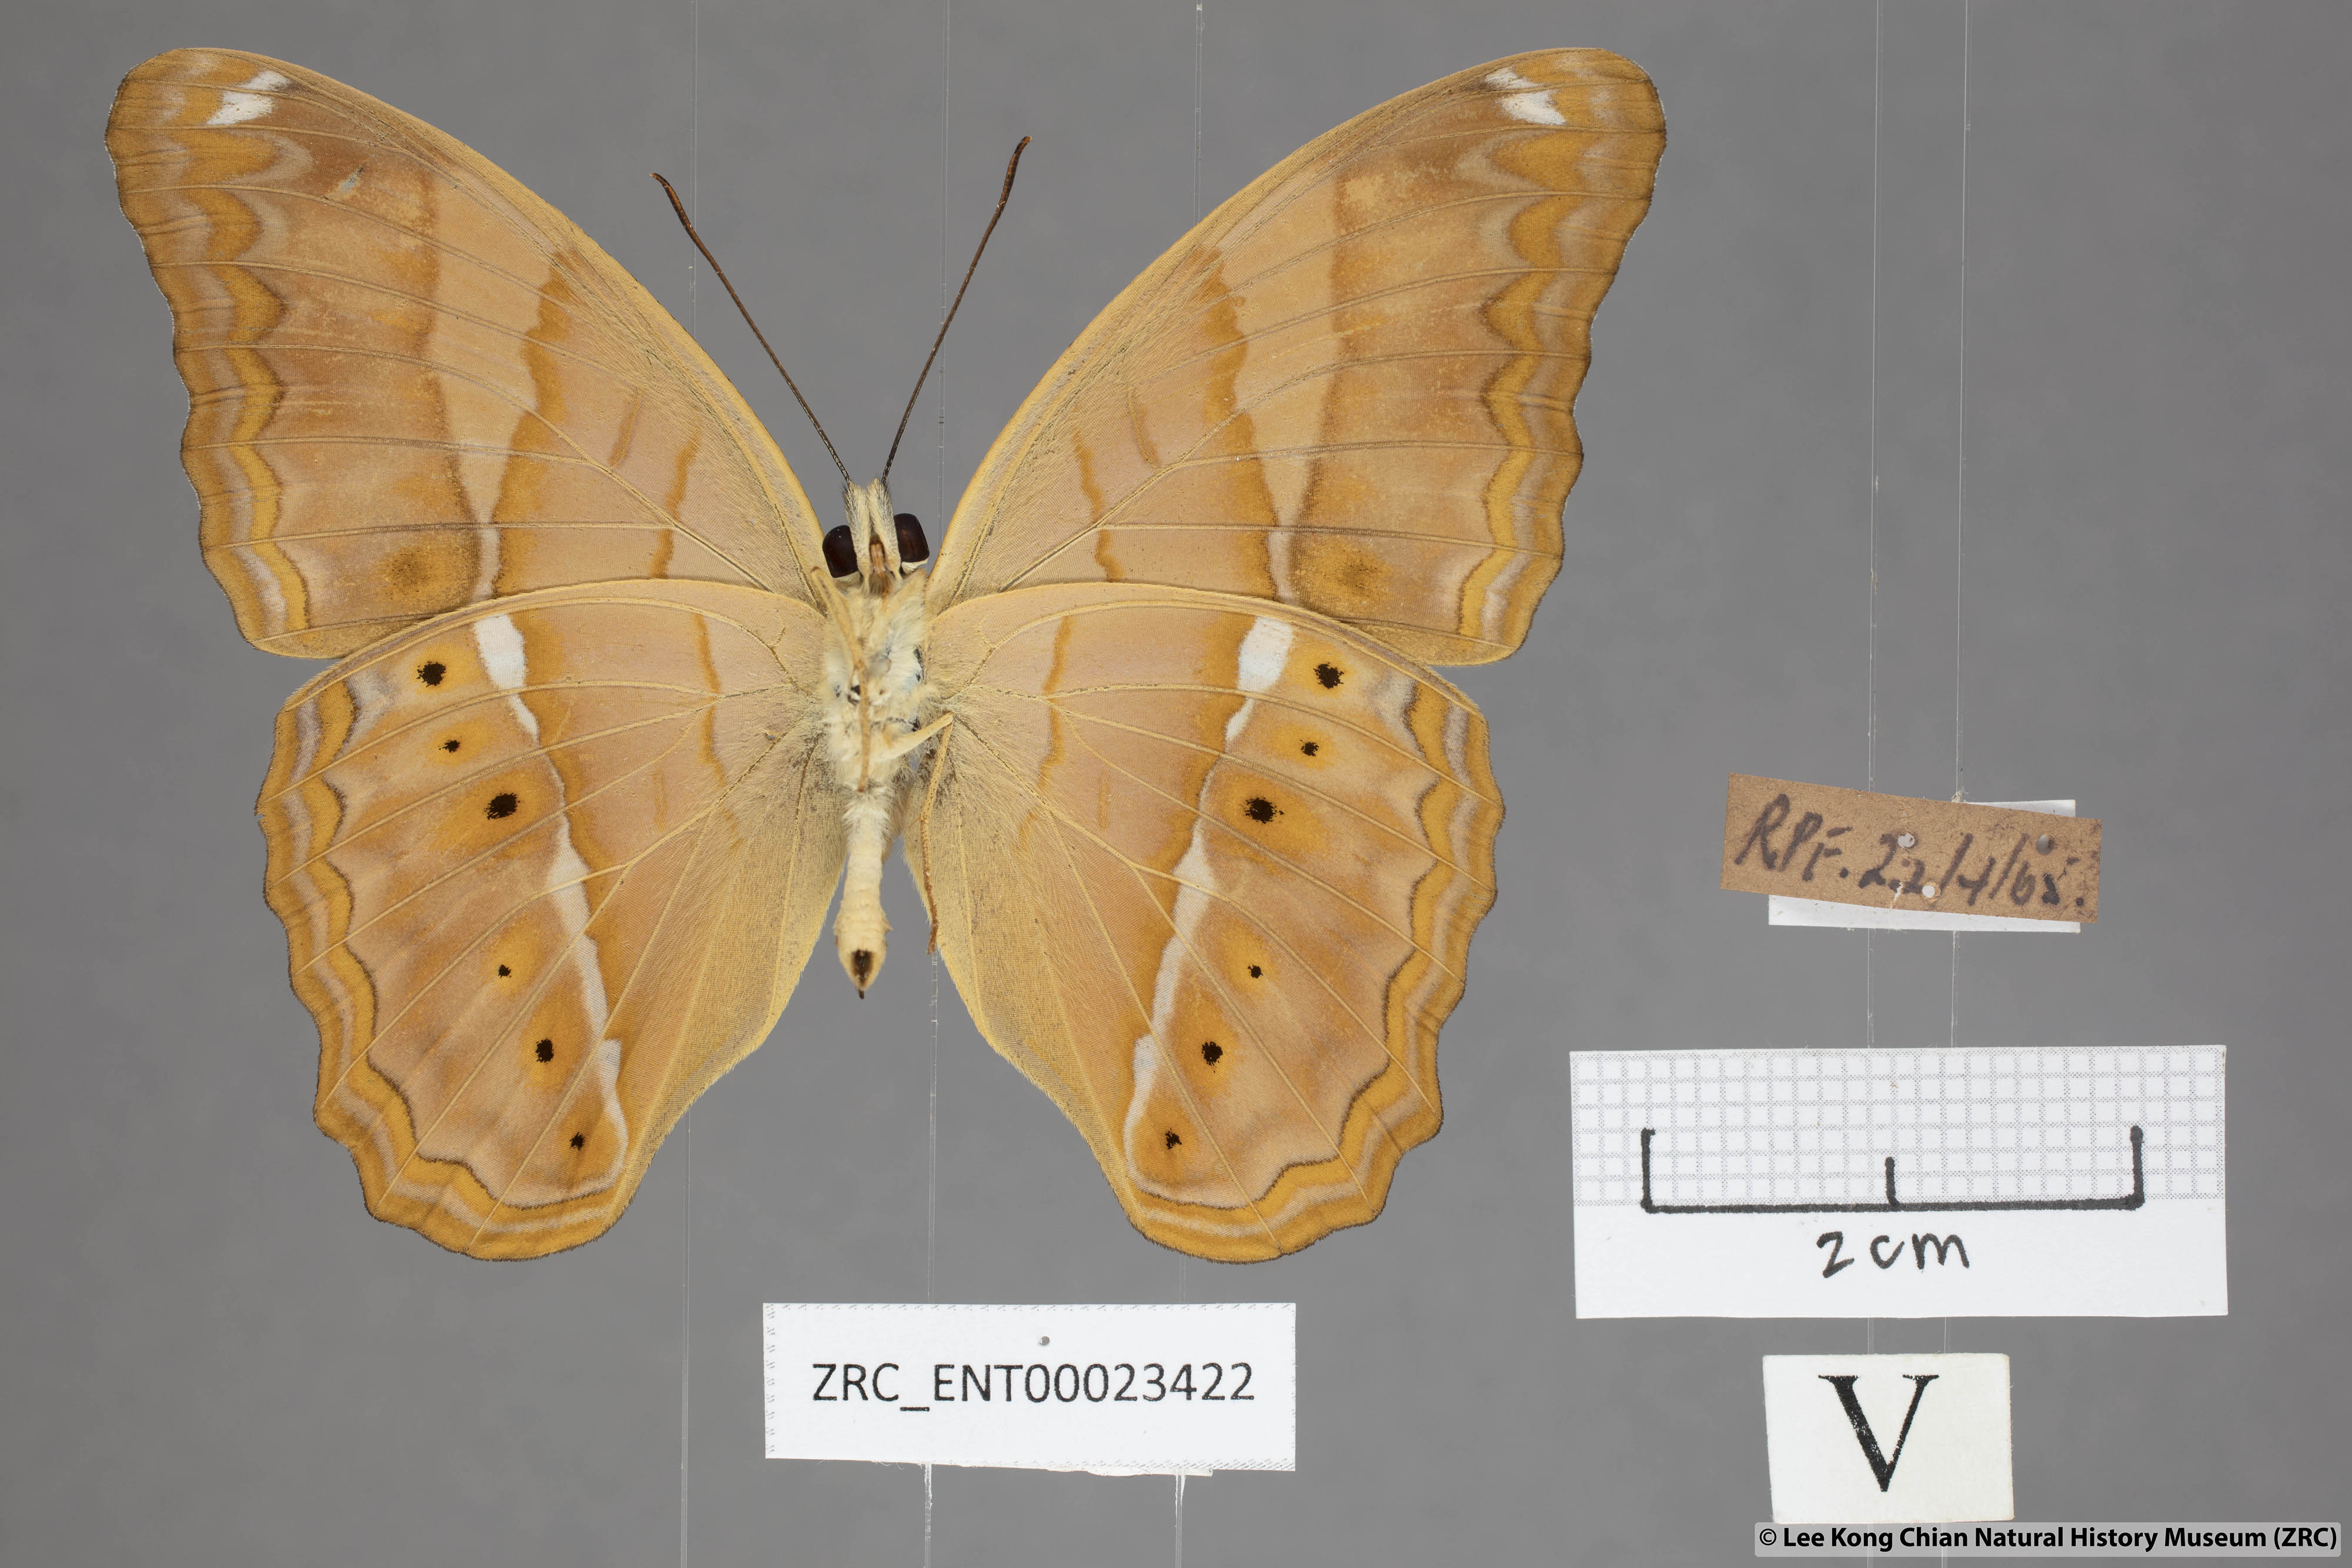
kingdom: Animalia
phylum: Arthropoda
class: Insecta
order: Lepidoptera
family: Nymphalidae
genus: Cirrochroa
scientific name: Cirrochroa emalea
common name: Malay yeoman
